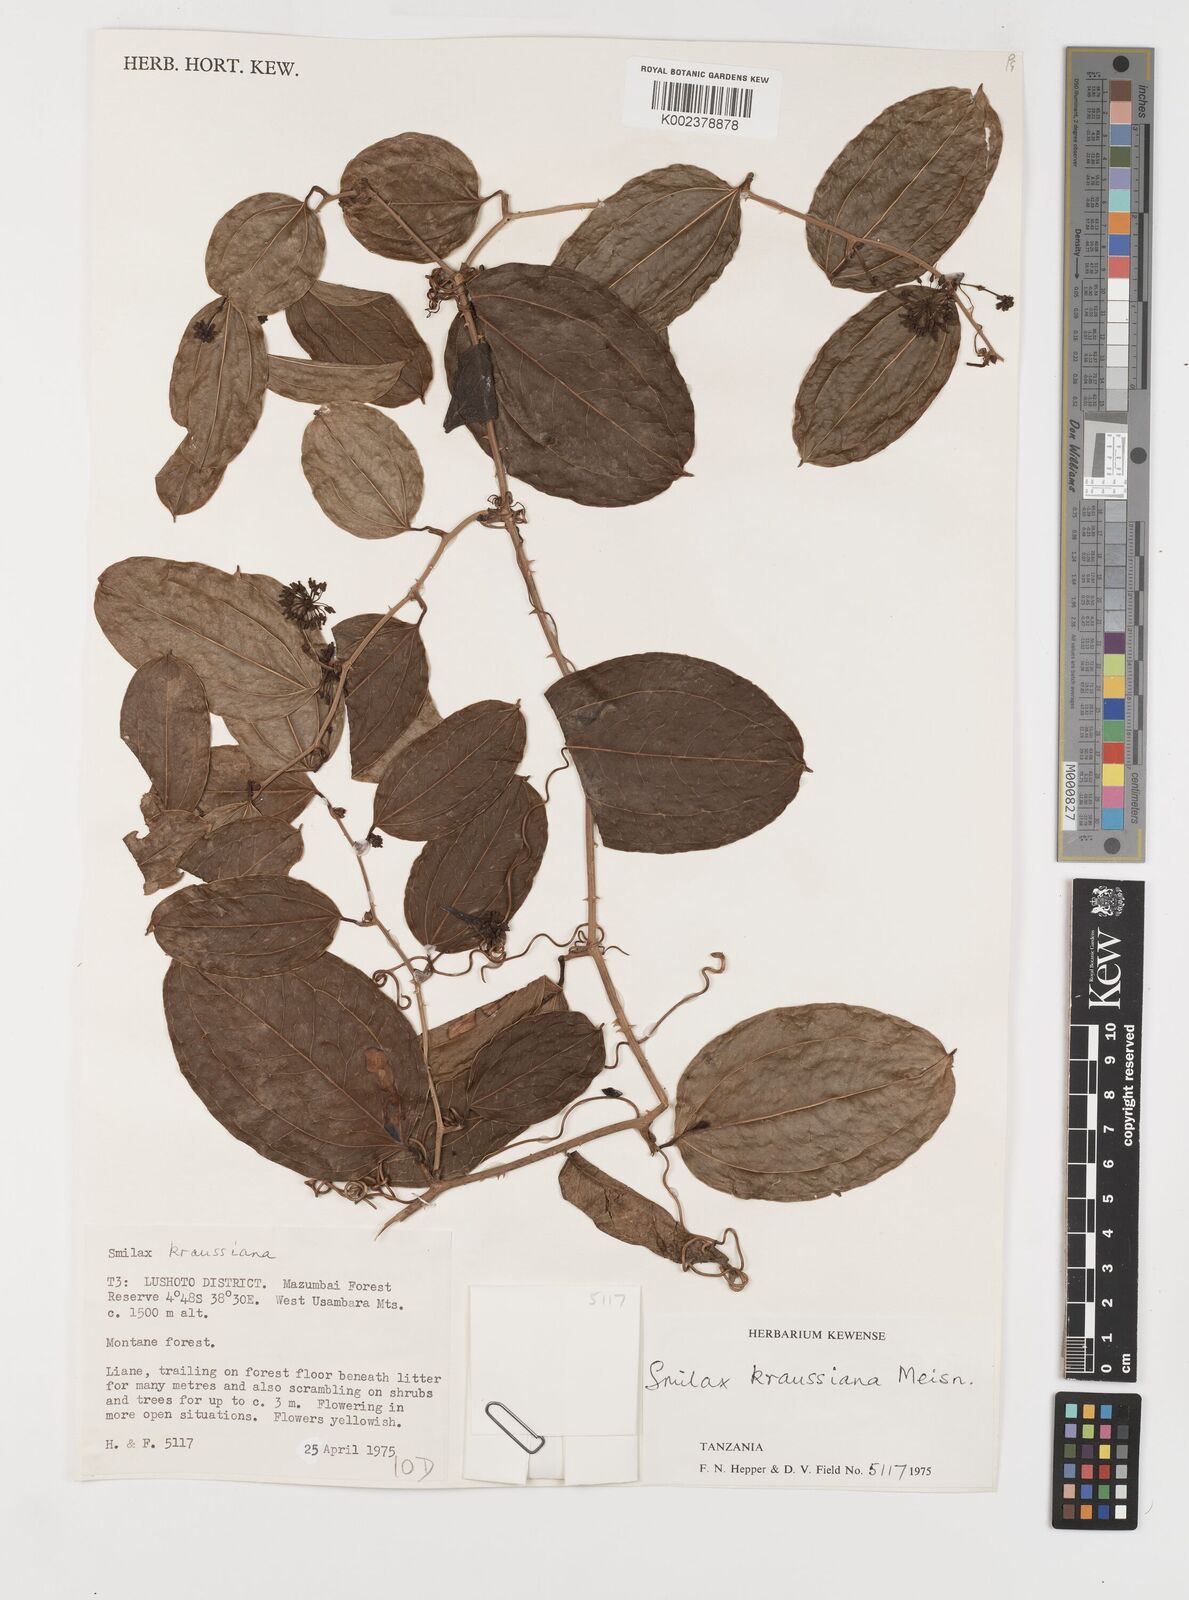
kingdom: Plantae
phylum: Tracheophyta
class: Liliopsida
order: Liliales
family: Smilacaceae
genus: Smilax
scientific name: Smilax anceps
